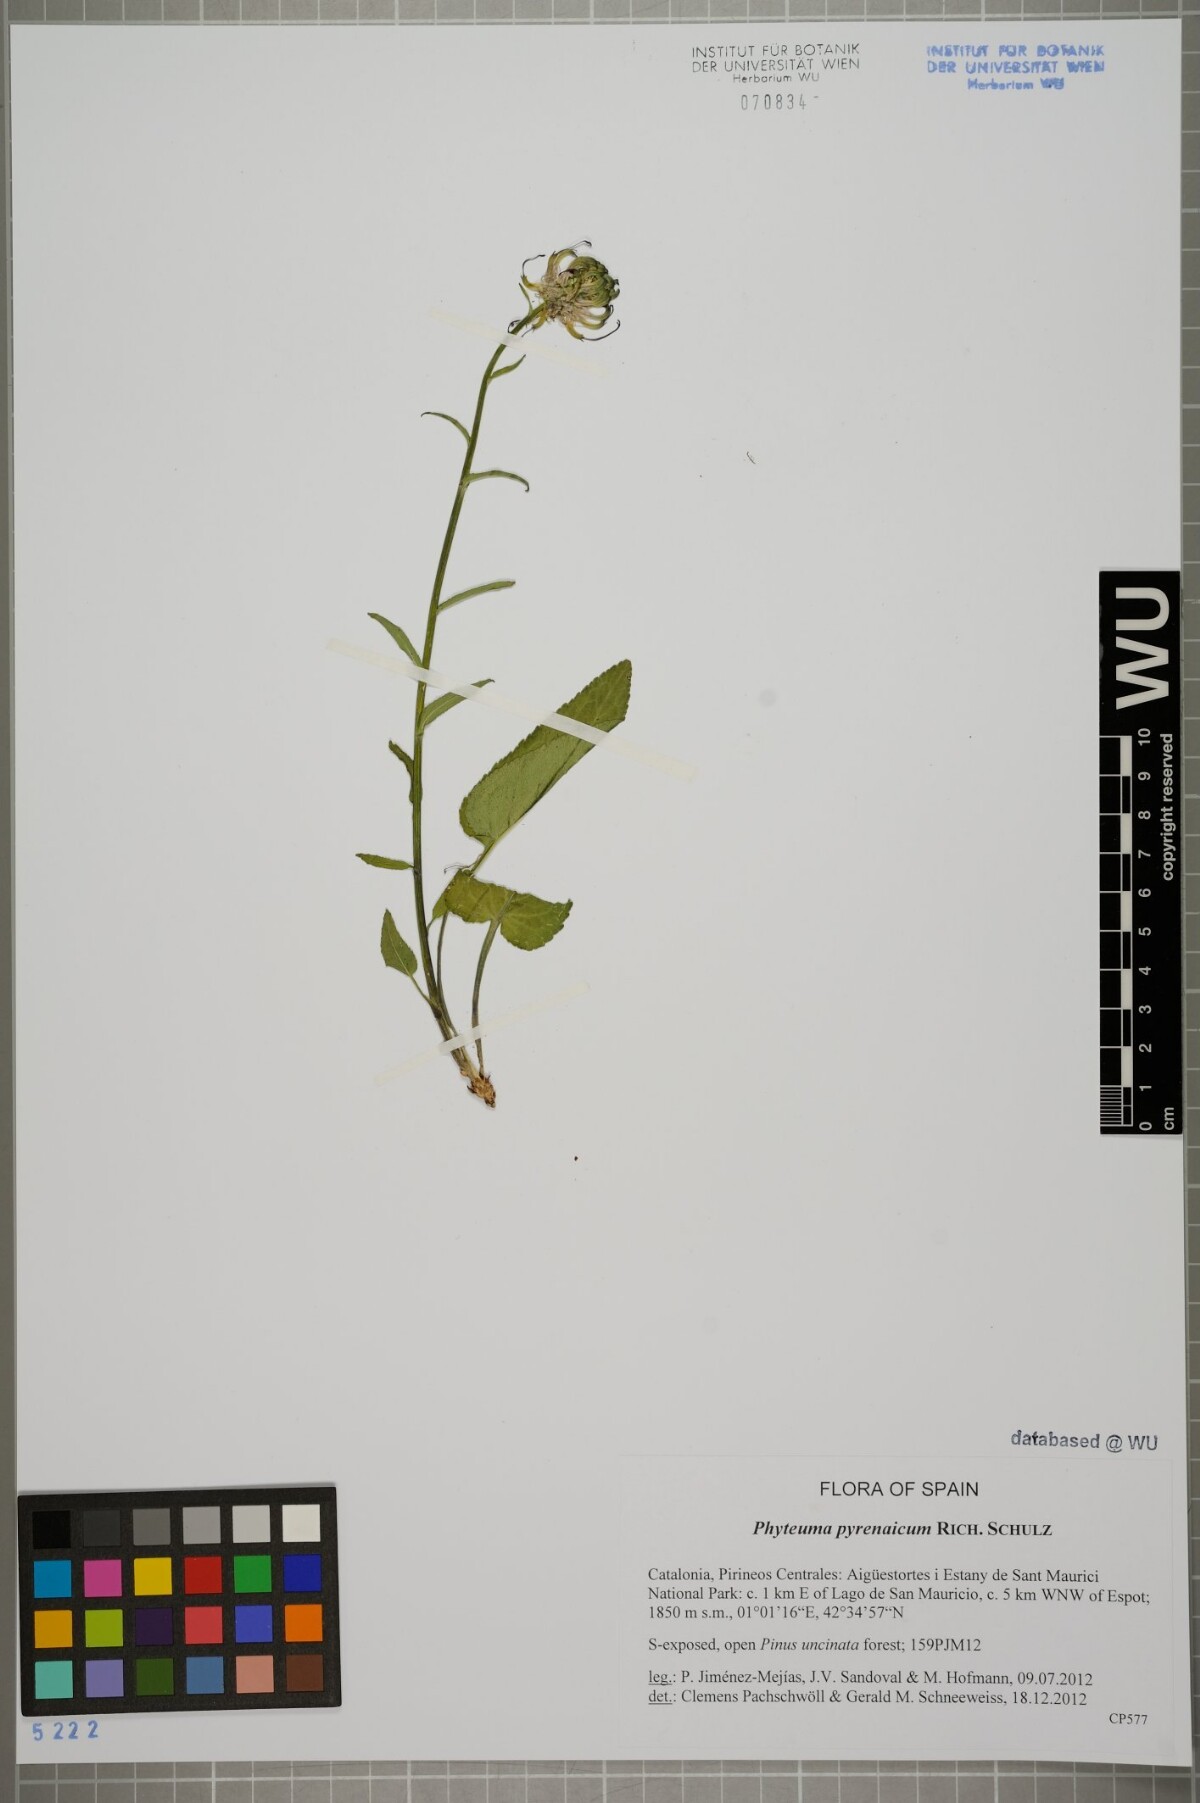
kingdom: Plantae
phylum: Tracheophyta
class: Magnoliopsida
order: Asterales
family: Campanulaceae
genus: Phyteuma
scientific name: Phyteuma spicatum
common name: Spiked rampion
